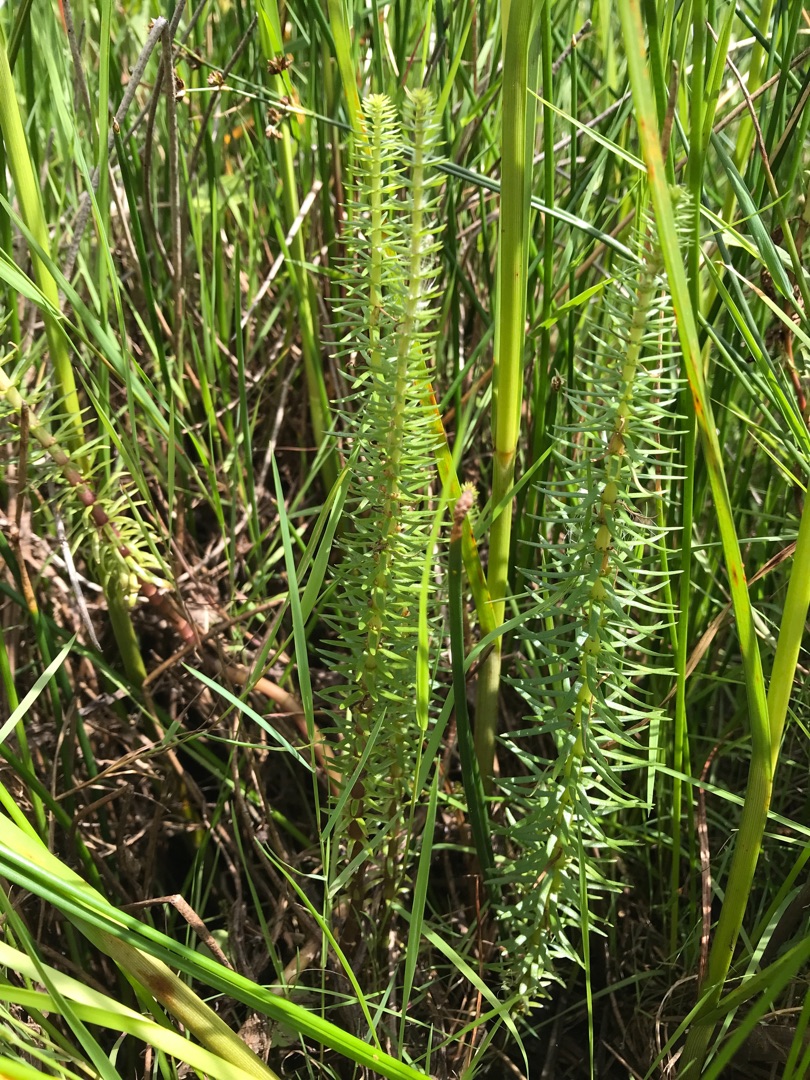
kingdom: Plantae
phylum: Tracheophyta
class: Magnoliopsida
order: Lamiales
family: Plantaginaceae
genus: Hippuris
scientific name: Hippuris vulgaris
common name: Vandspir
